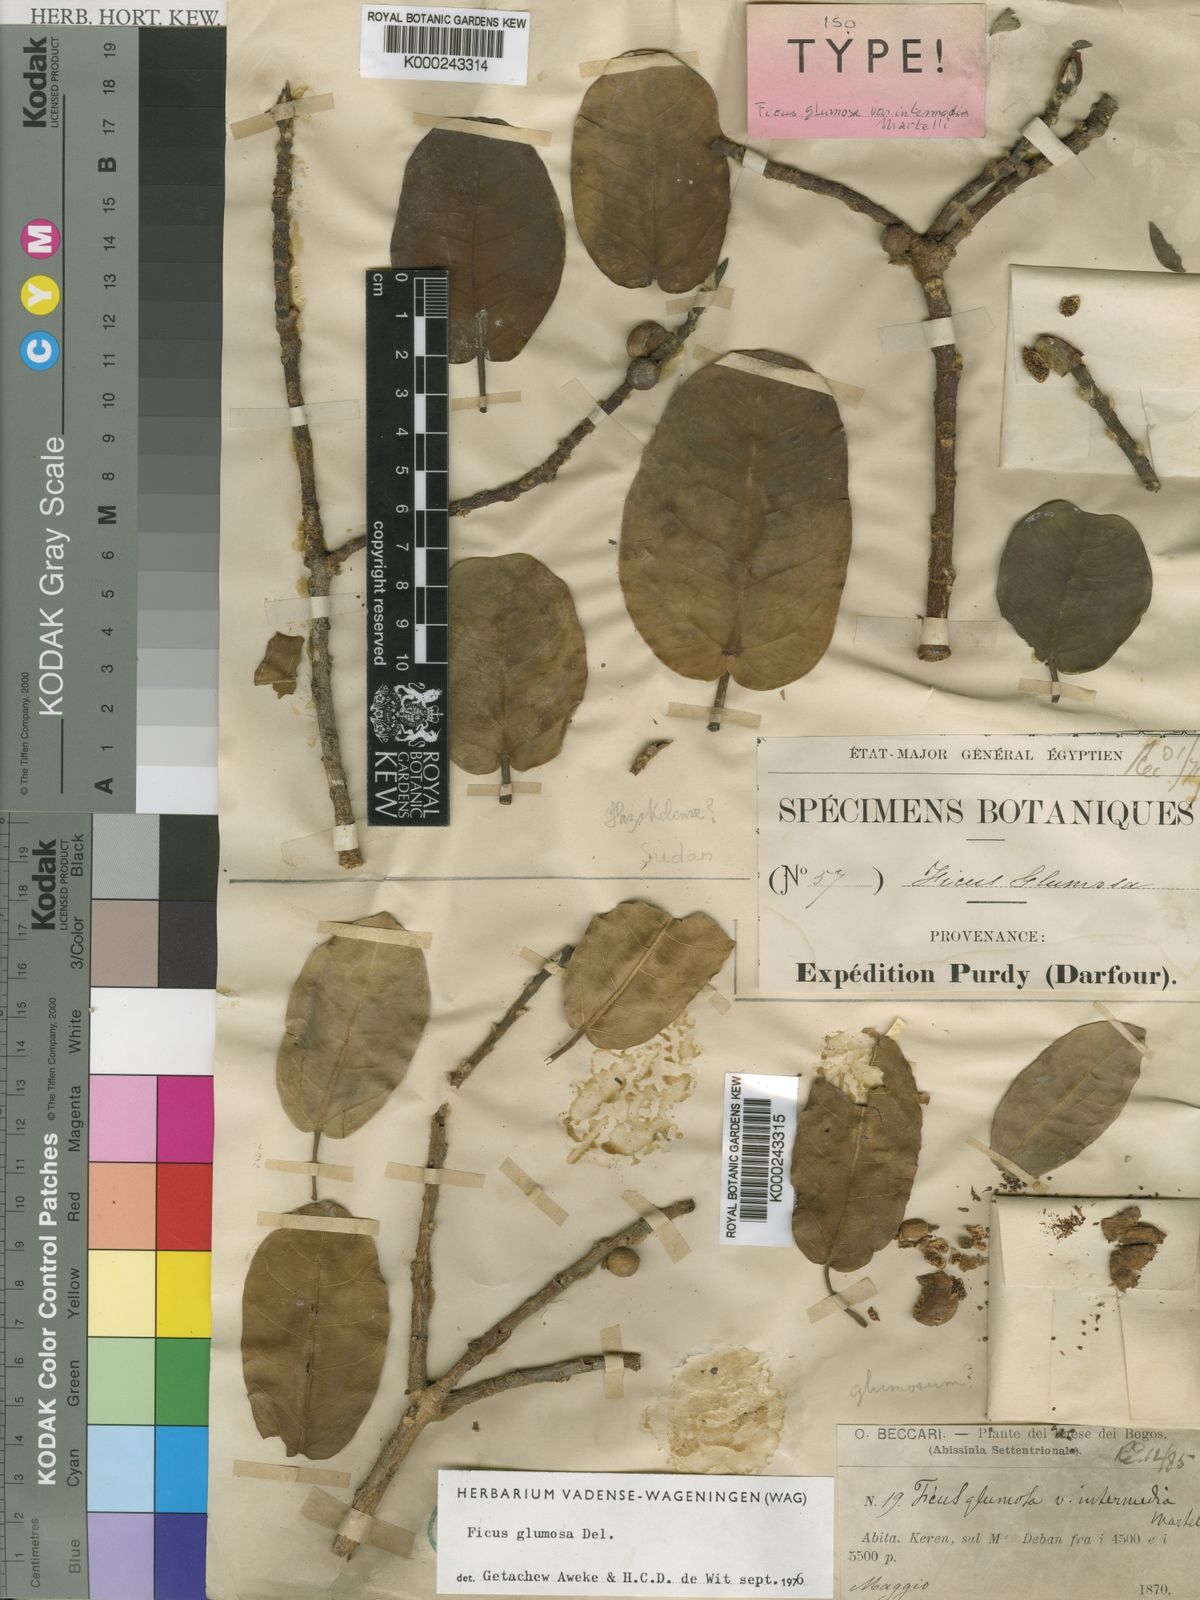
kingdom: Plantae
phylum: Tracheophyta
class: Magnoliopsida
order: Rosales
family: Moraceae
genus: Ficus
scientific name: Ficus glumosa
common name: Hairy rock fig
